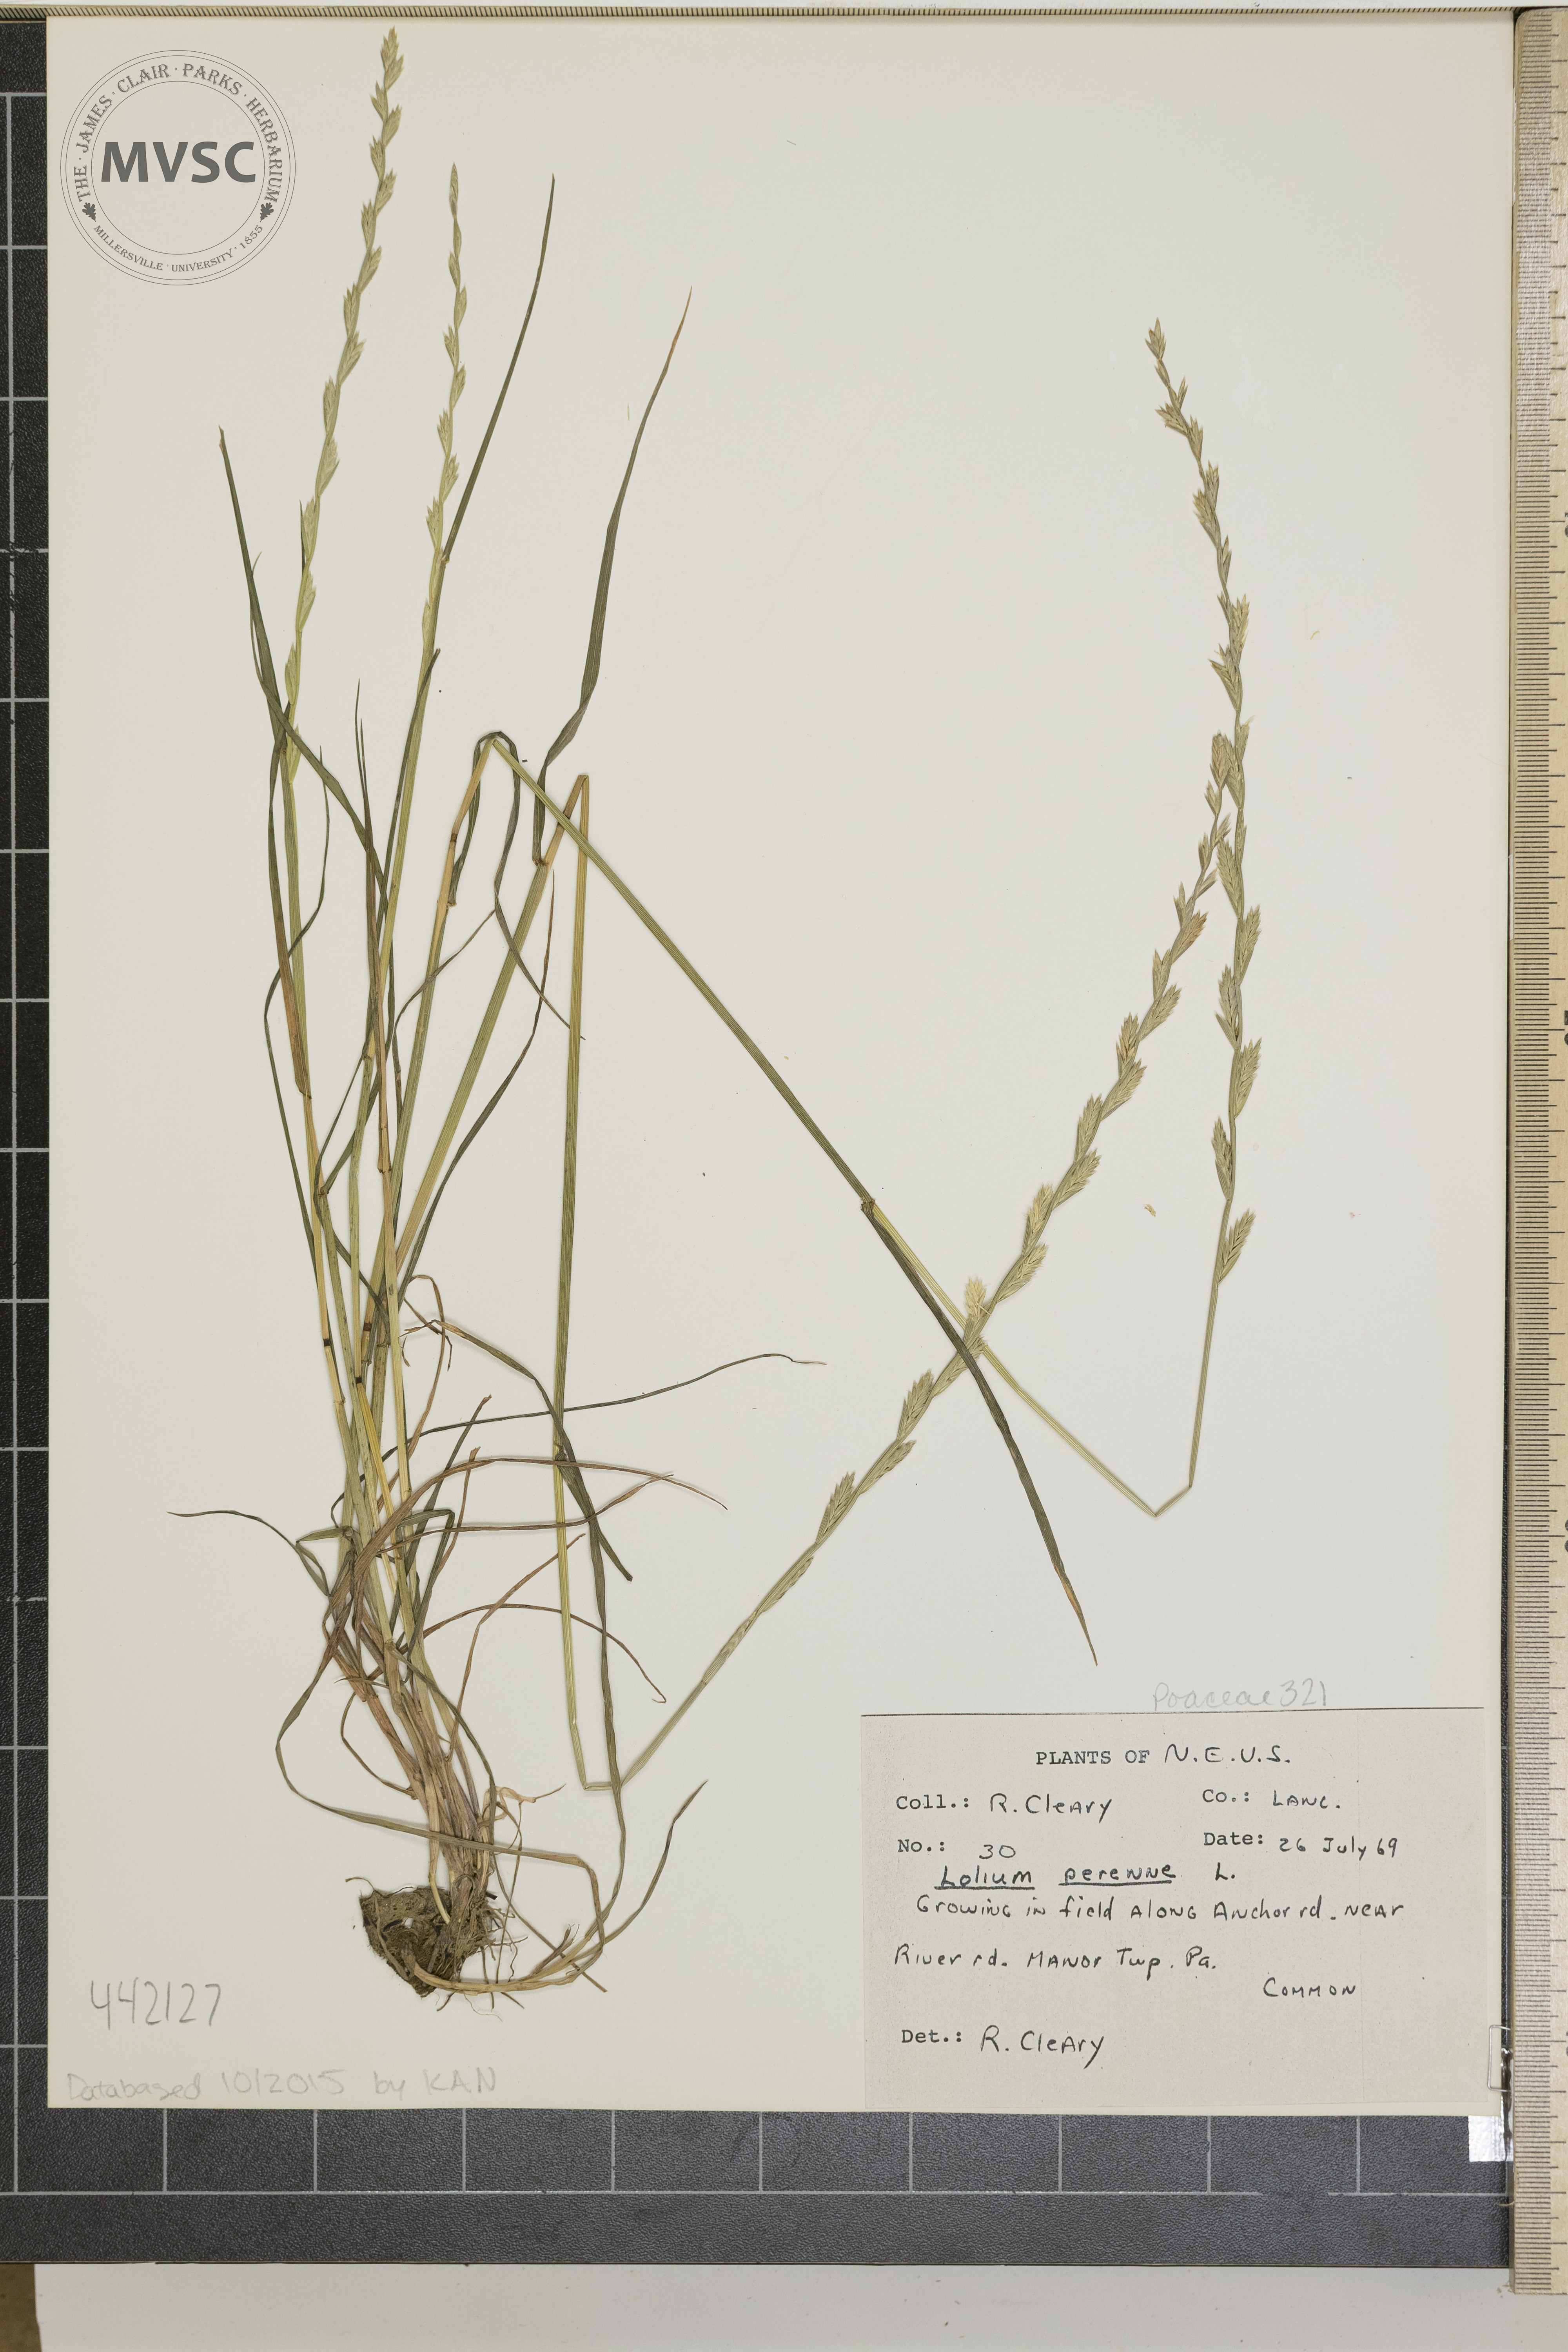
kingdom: Plantae
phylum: Tracheophyta
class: Liliopsida
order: Poales
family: Poaceae
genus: Lolium
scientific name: Lolium perenne
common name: Perennial ryegrass
